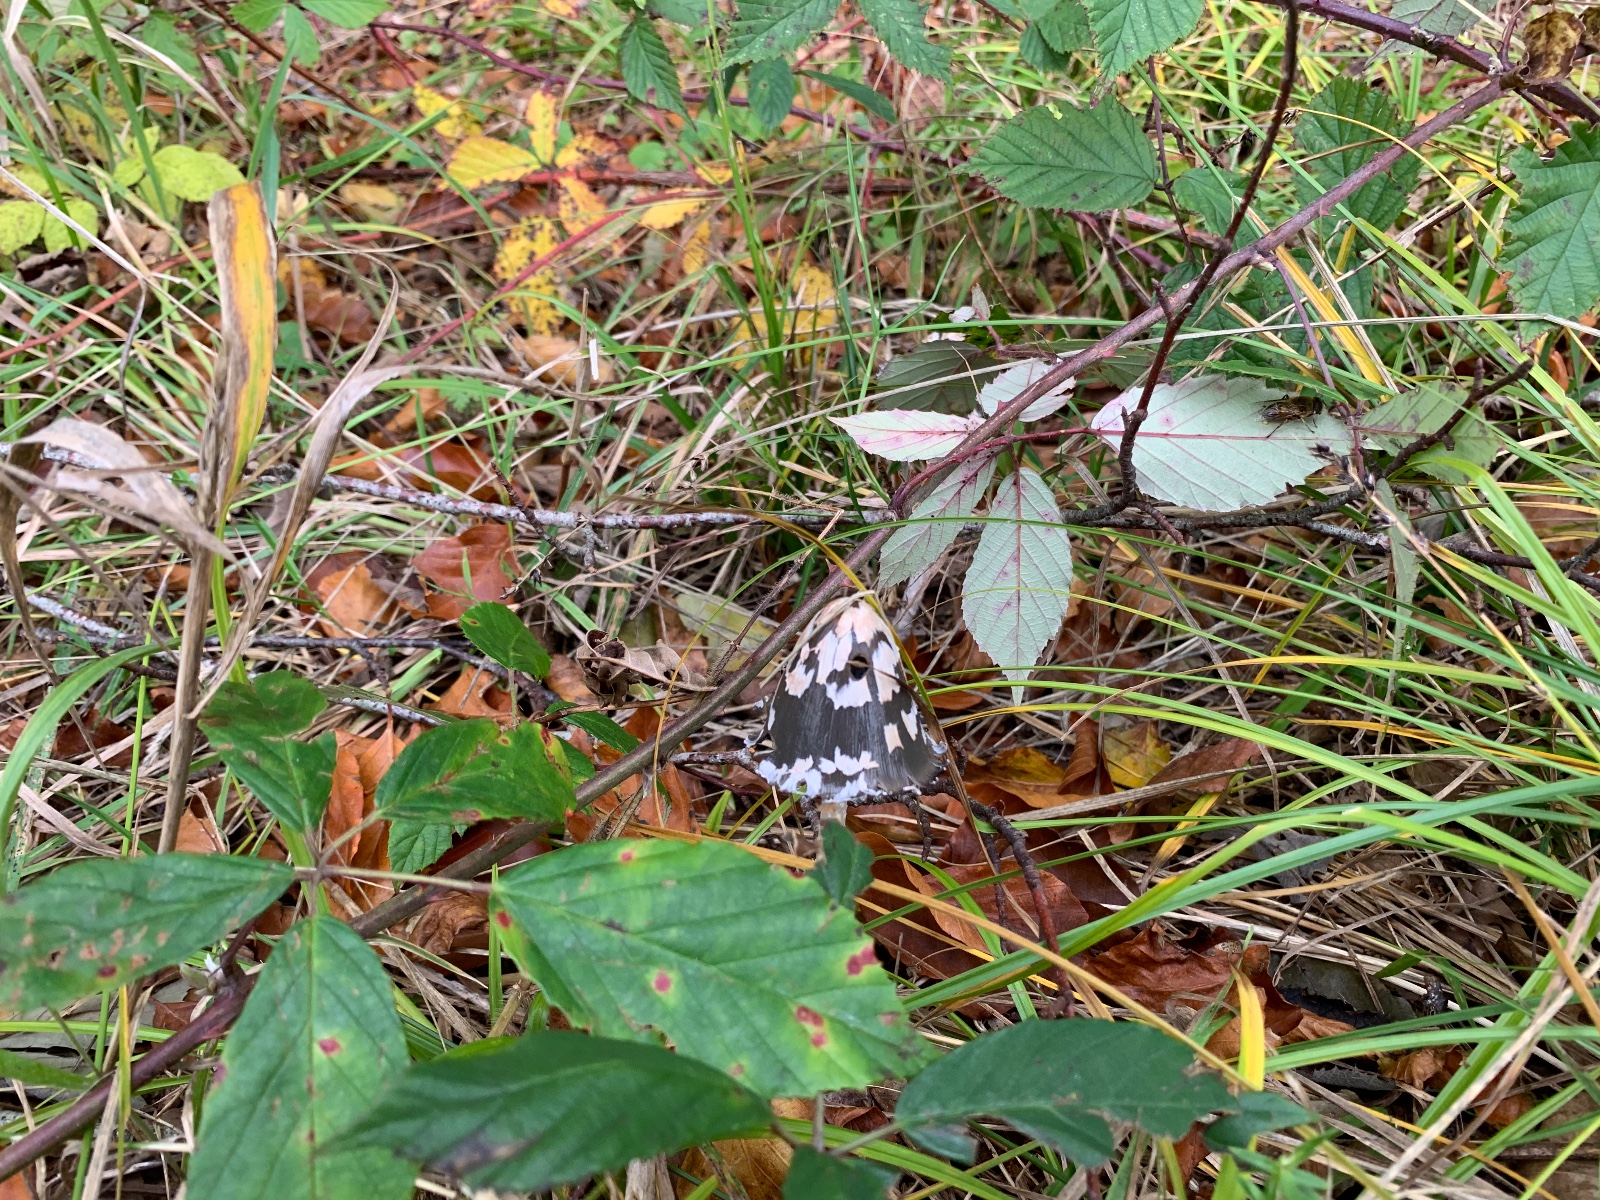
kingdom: Fungi
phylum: Basidiomycota
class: Agaricomycetes
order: Agaricales
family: Psathyrellaceae
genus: Coprinopsis
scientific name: Coprinopsis picacea
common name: skade-blækhat
